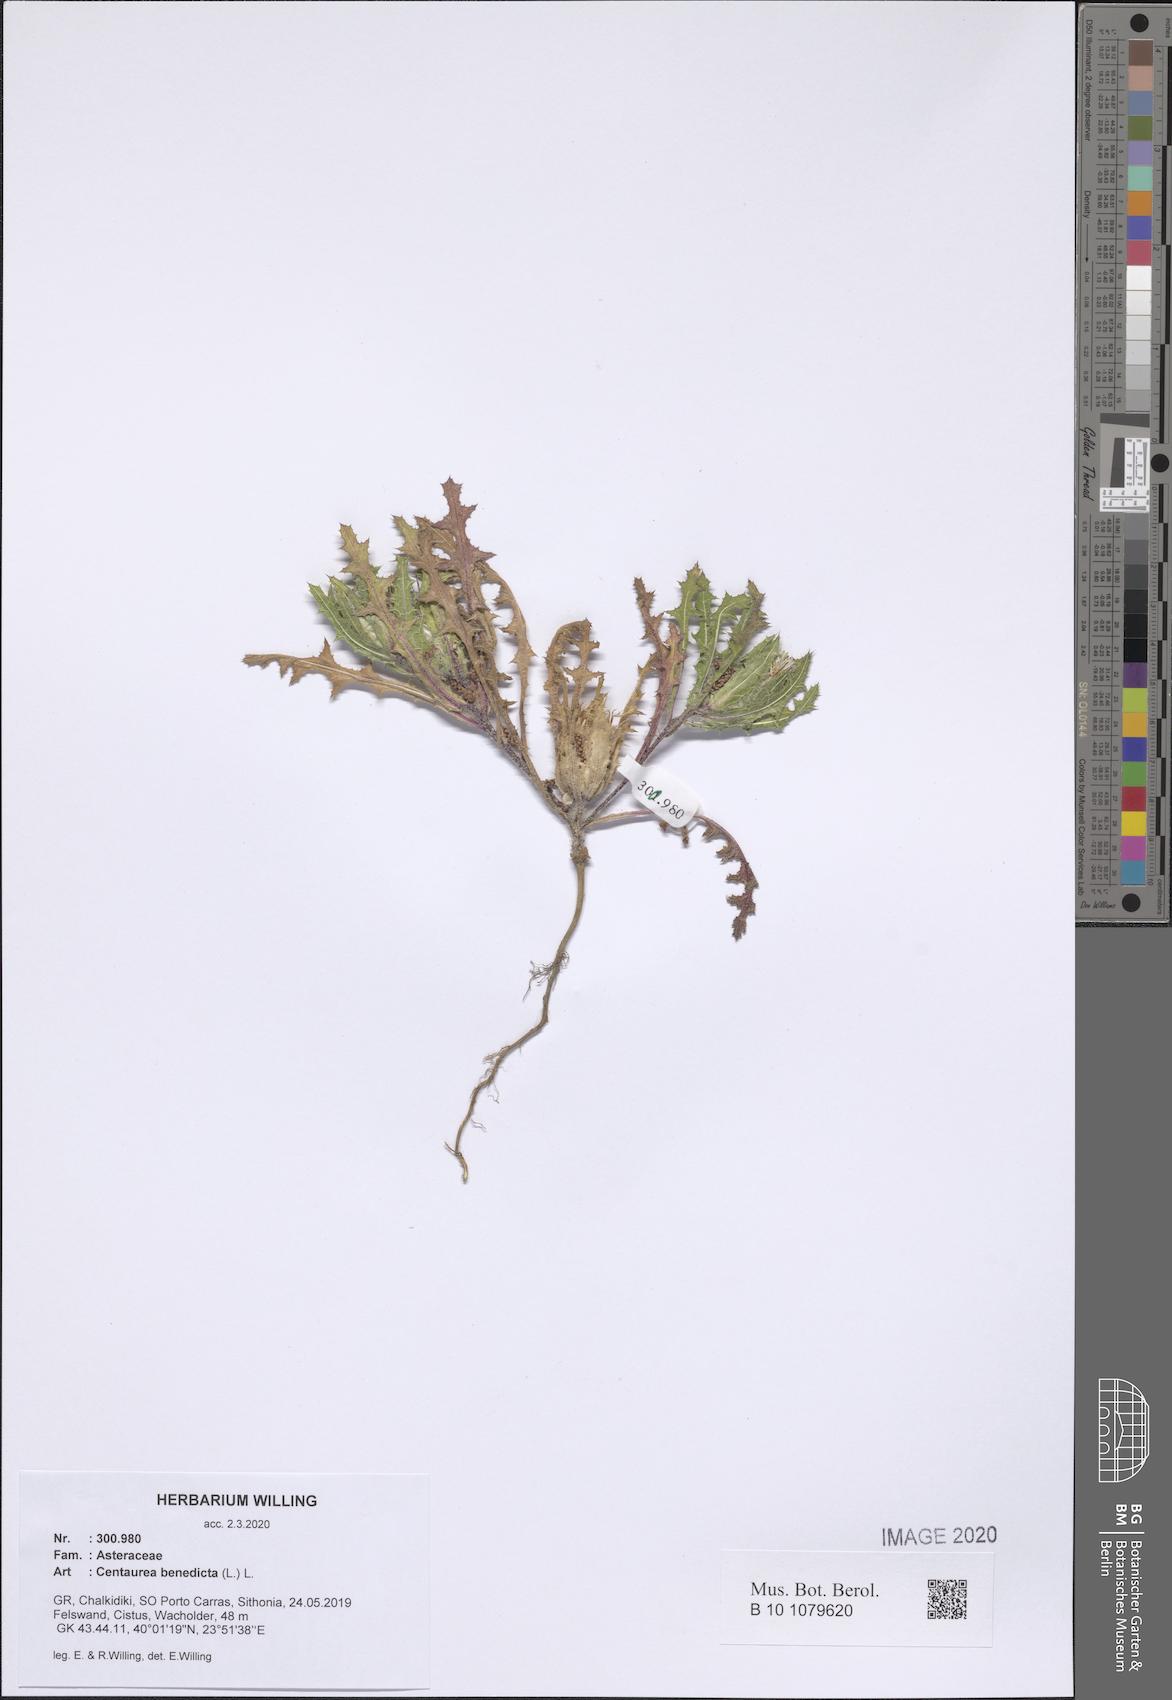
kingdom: Plantae
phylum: Tracheophyta
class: Magnoliopsida
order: Asterales
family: Asteraceae
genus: Centaurea
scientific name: Centaurea benedicta
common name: Blessed thistle
